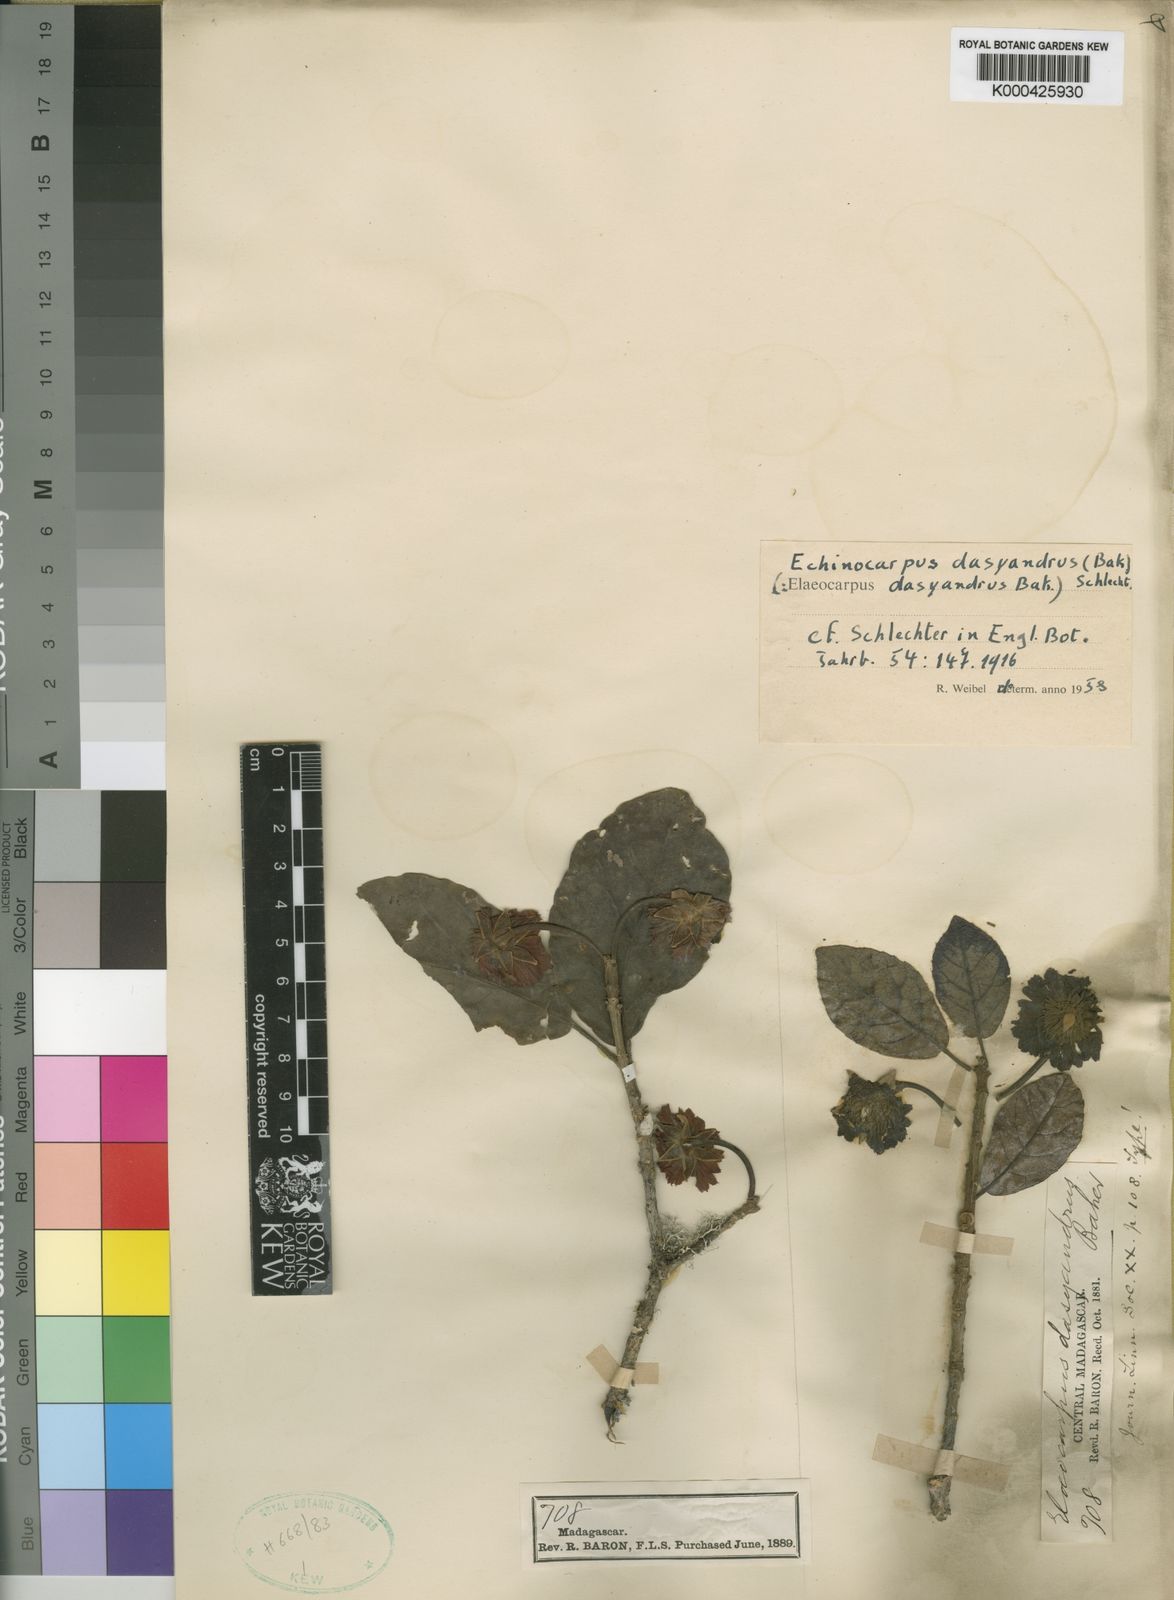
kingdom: Plantae
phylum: Tracheophyta
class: Magnoliopsida
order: Oxalidales
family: Elaeocarpaceae
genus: Sloanea
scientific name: Sloanea rhodantha
